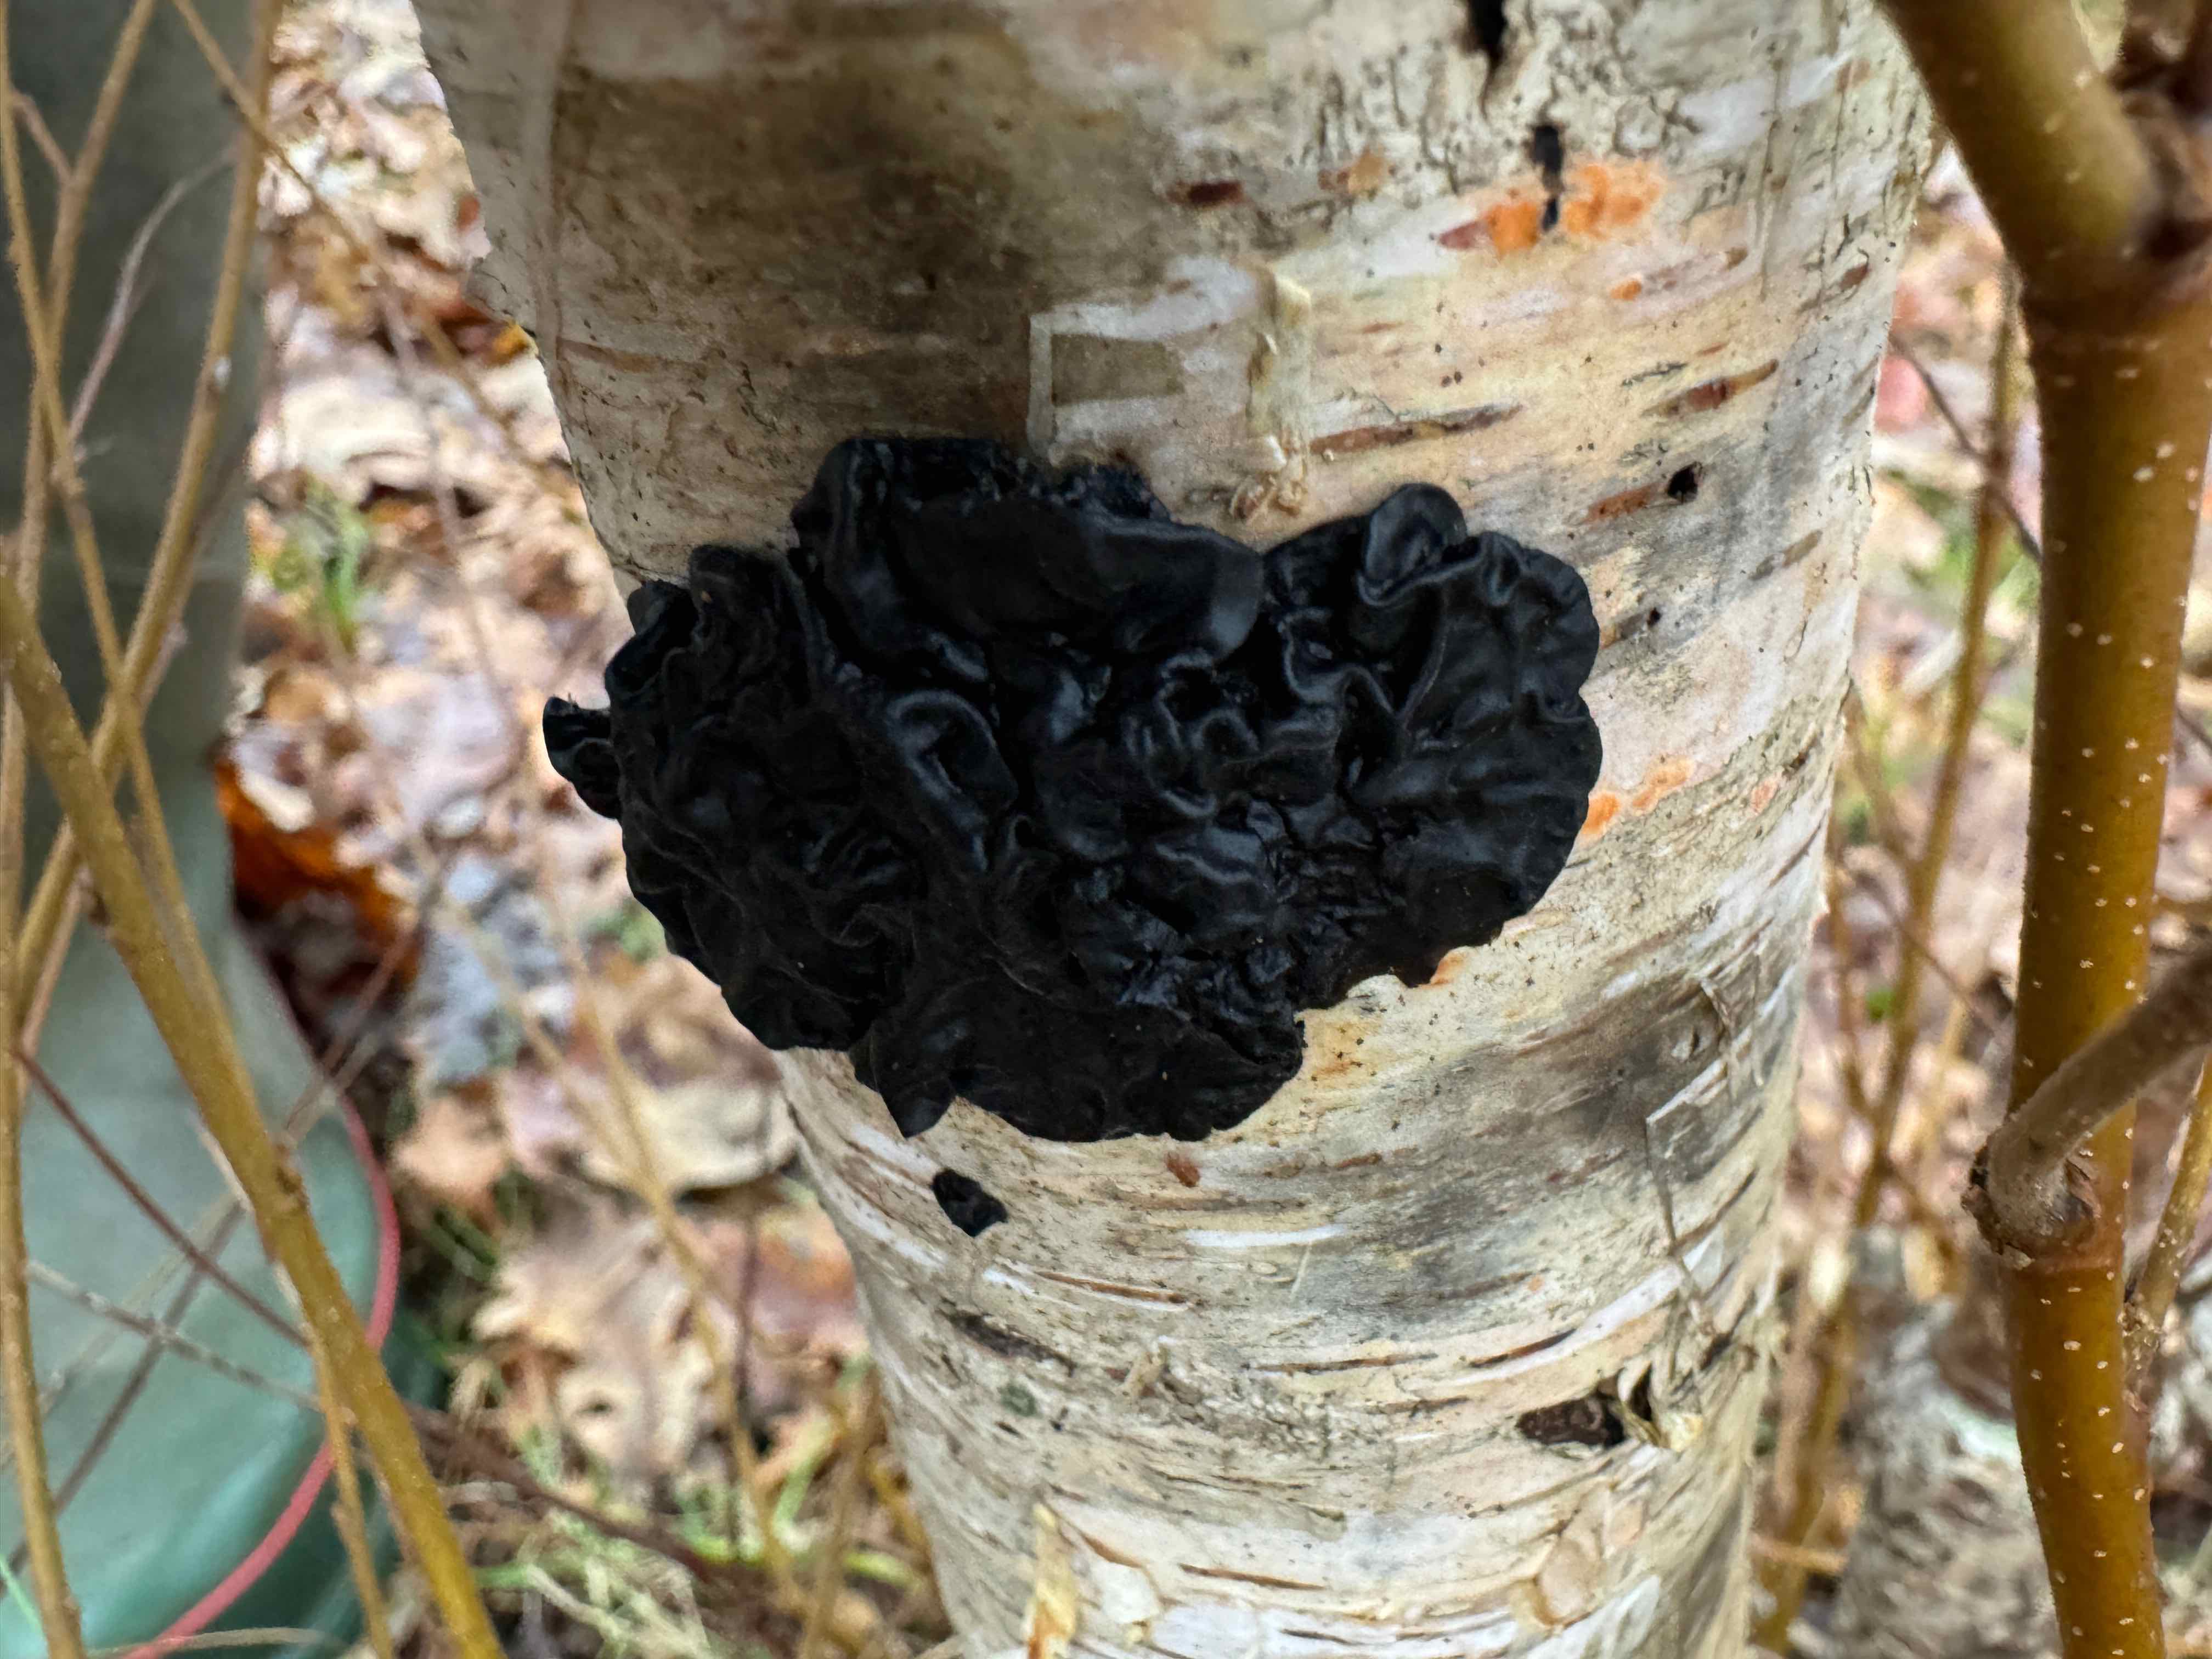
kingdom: Fungi
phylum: Basidiomycota
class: Agaricomycetes
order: Auriculariales
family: Auriculariaceae
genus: Exidia
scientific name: Exidia nigricans
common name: almindelig bævretop
